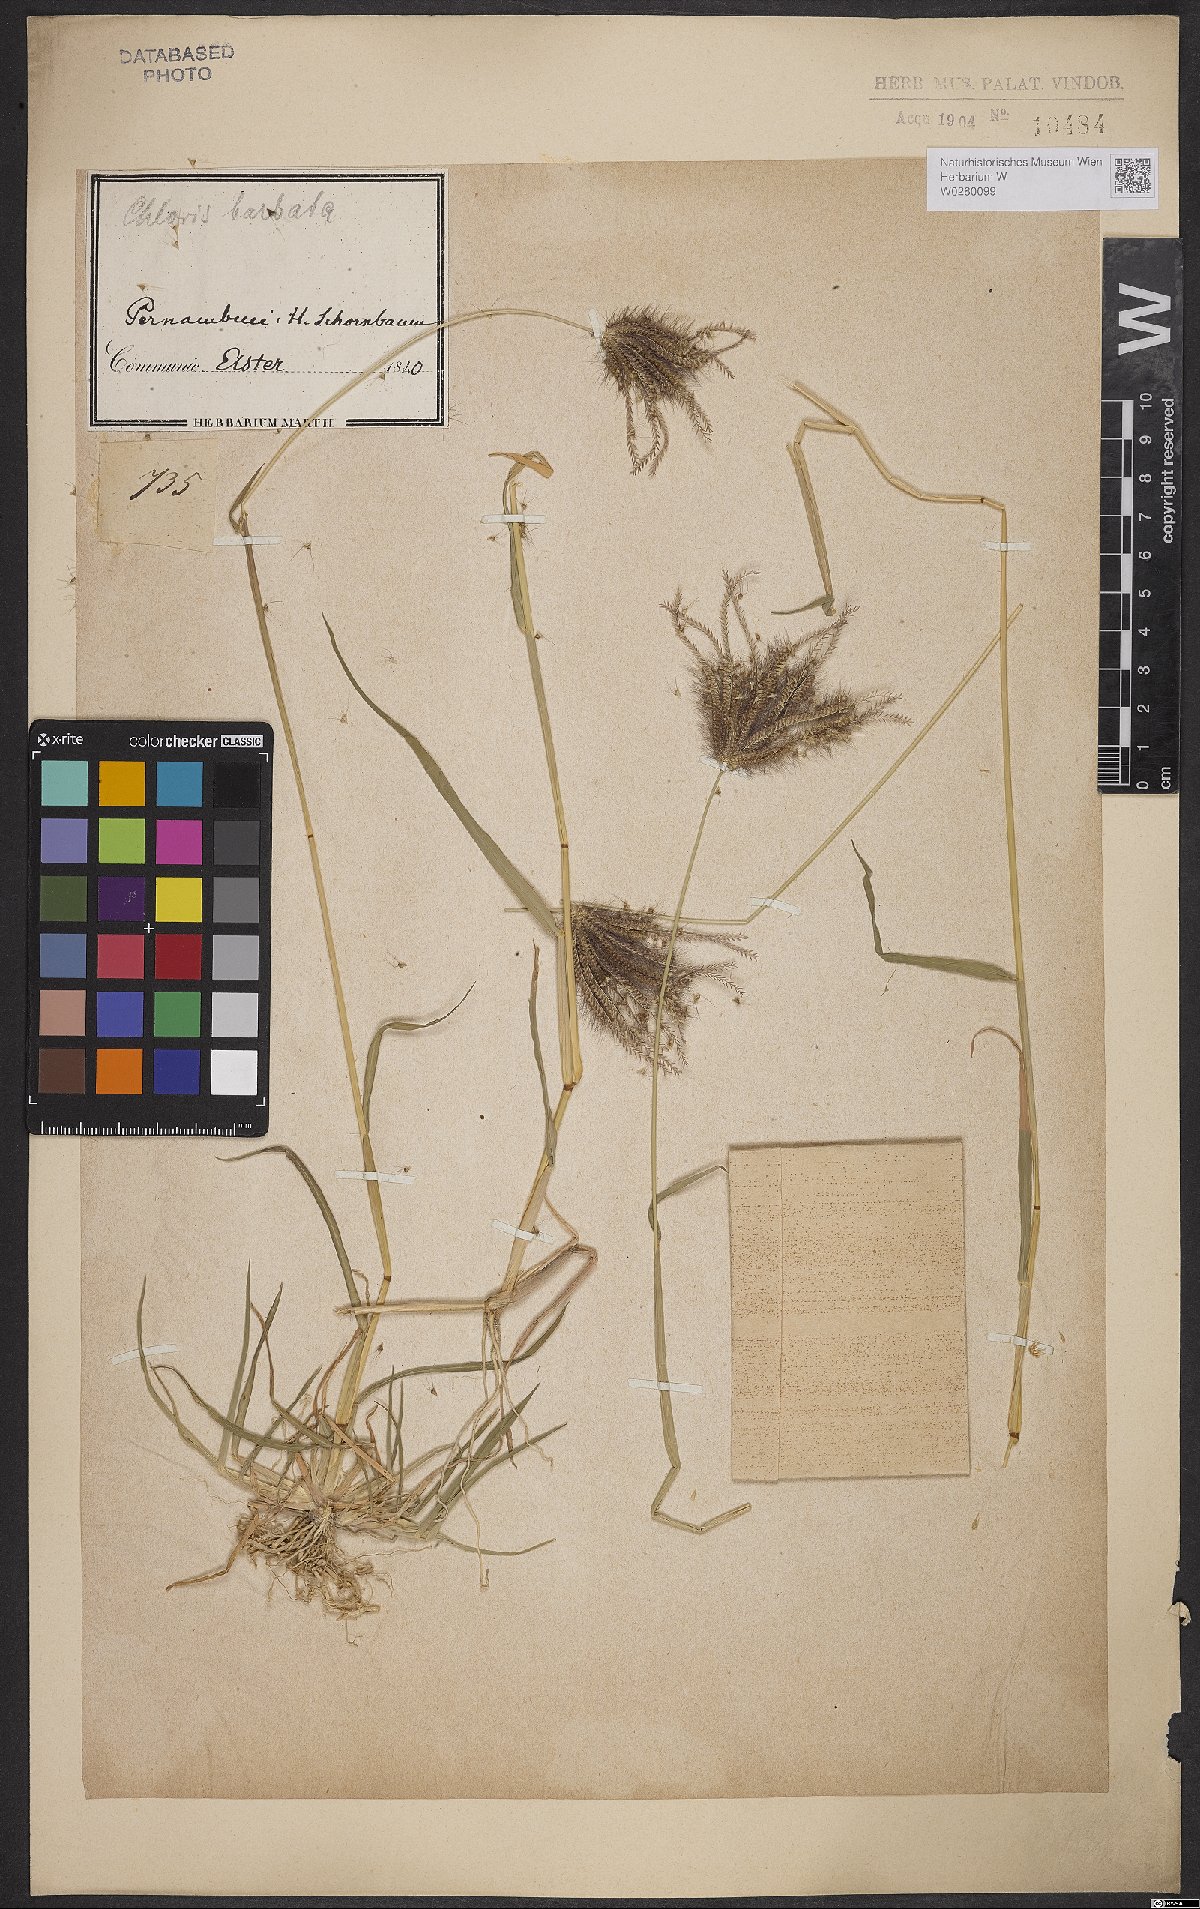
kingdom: Plantae
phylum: Tracheophyta
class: Liliopsida
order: Poales
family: Poaceae
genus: Chloris
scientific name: Chloris barbata
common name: Swollen fingergrass
